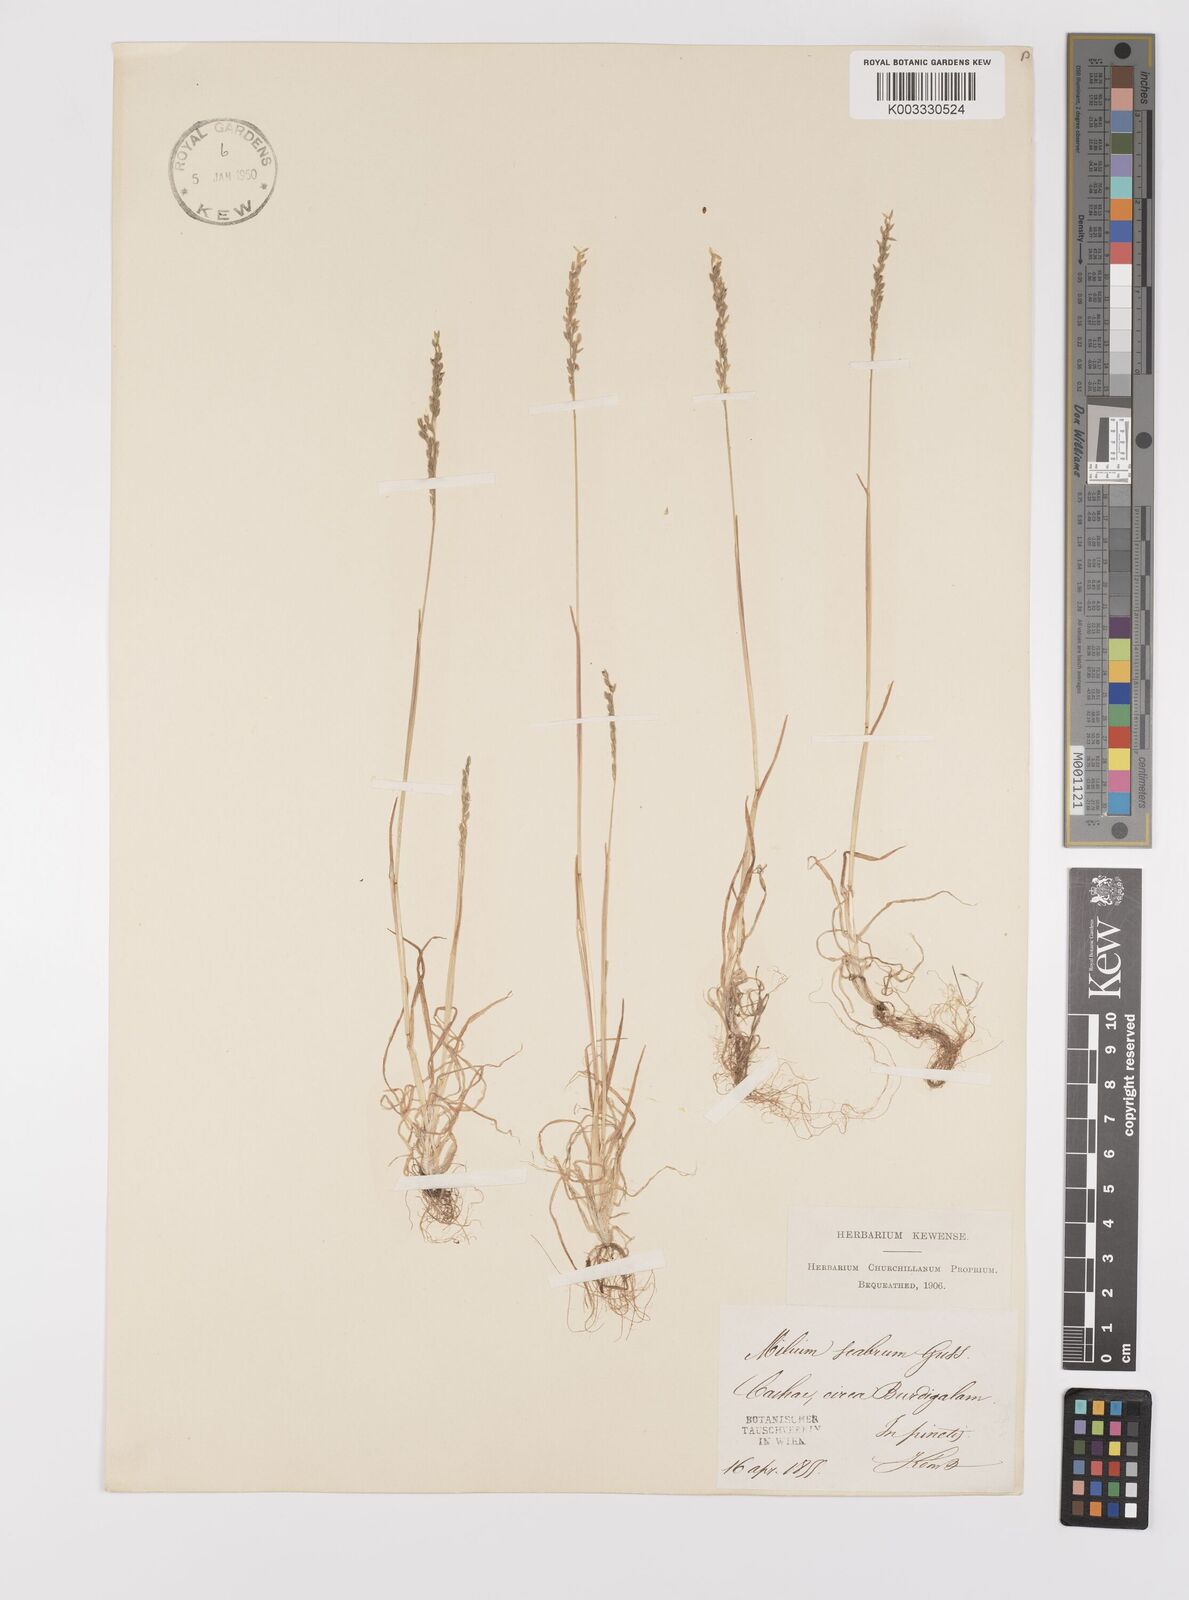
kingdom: Plantae
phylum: Tracheophyta
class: Liliopsida
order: Poales
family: Poaceae
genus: Milium
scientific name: Milium vernale
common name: Early millet
